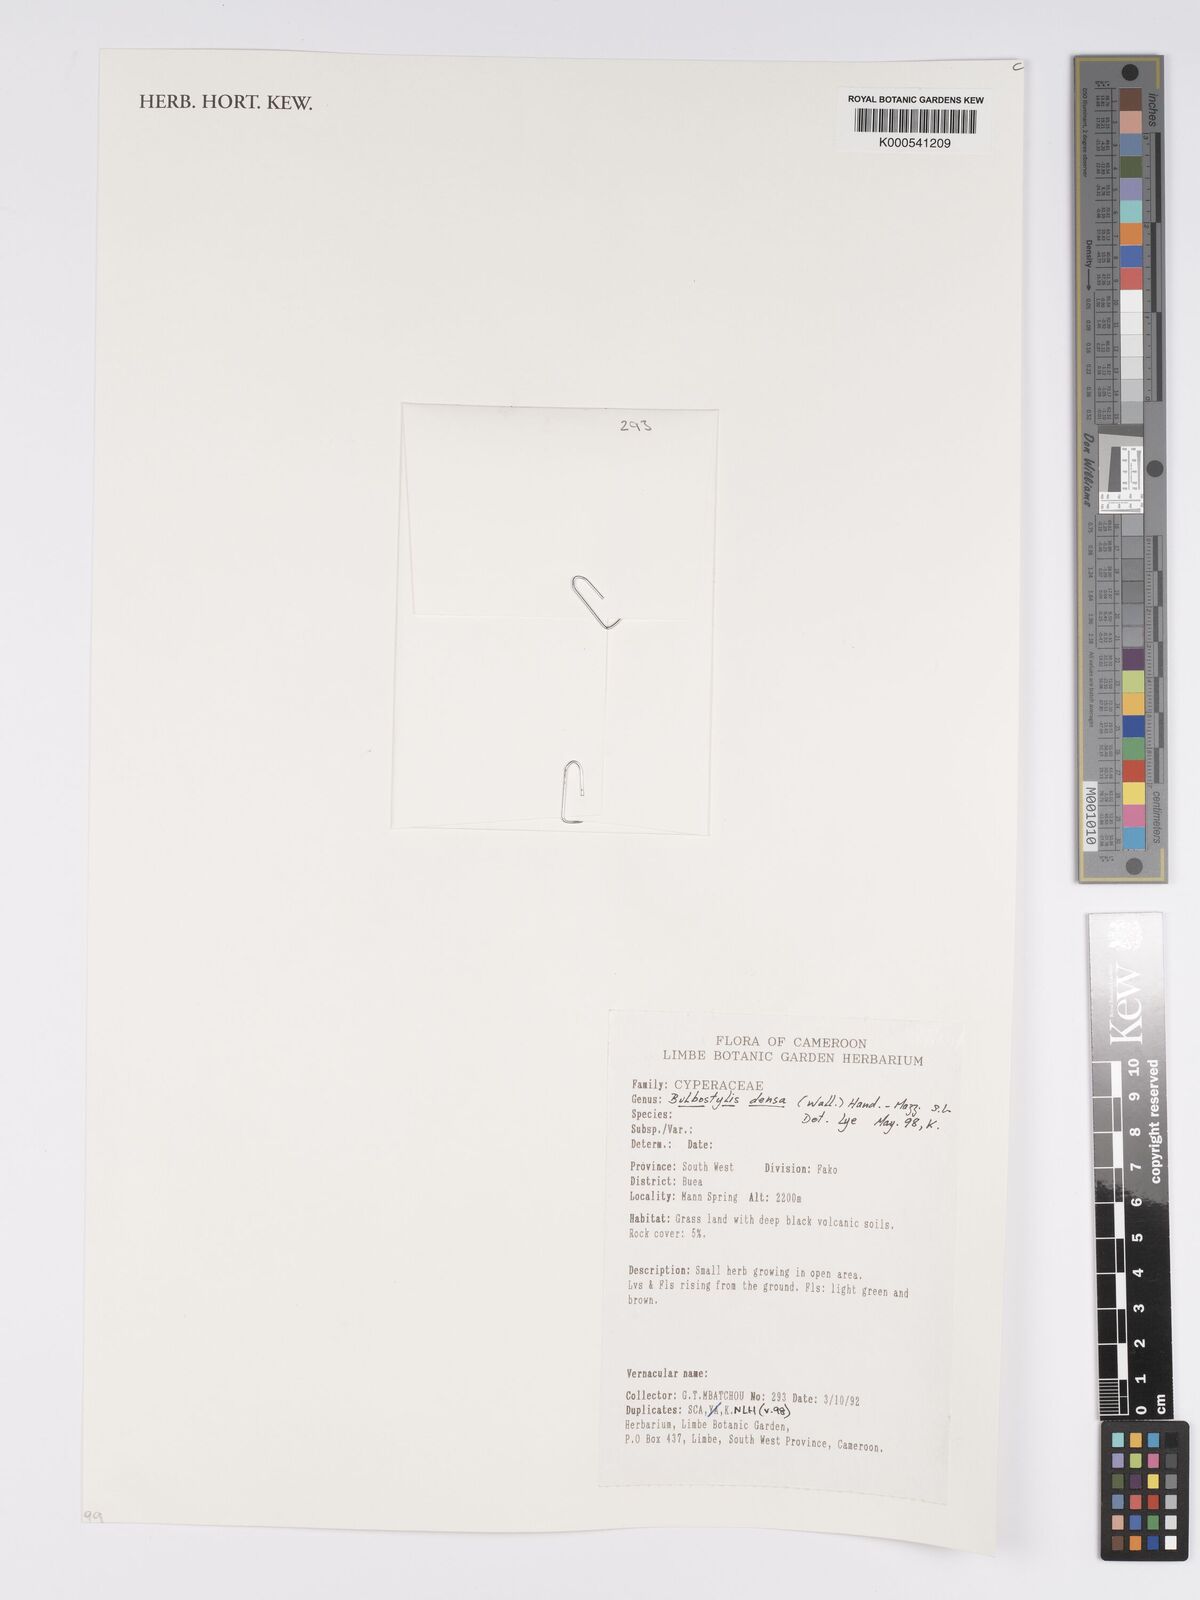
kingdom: Plantae
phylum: Tracheophyta
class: Liliopsida
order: Poales
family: Cyperaceae
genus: Bulbostylis
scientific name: Bulbostylis densa
